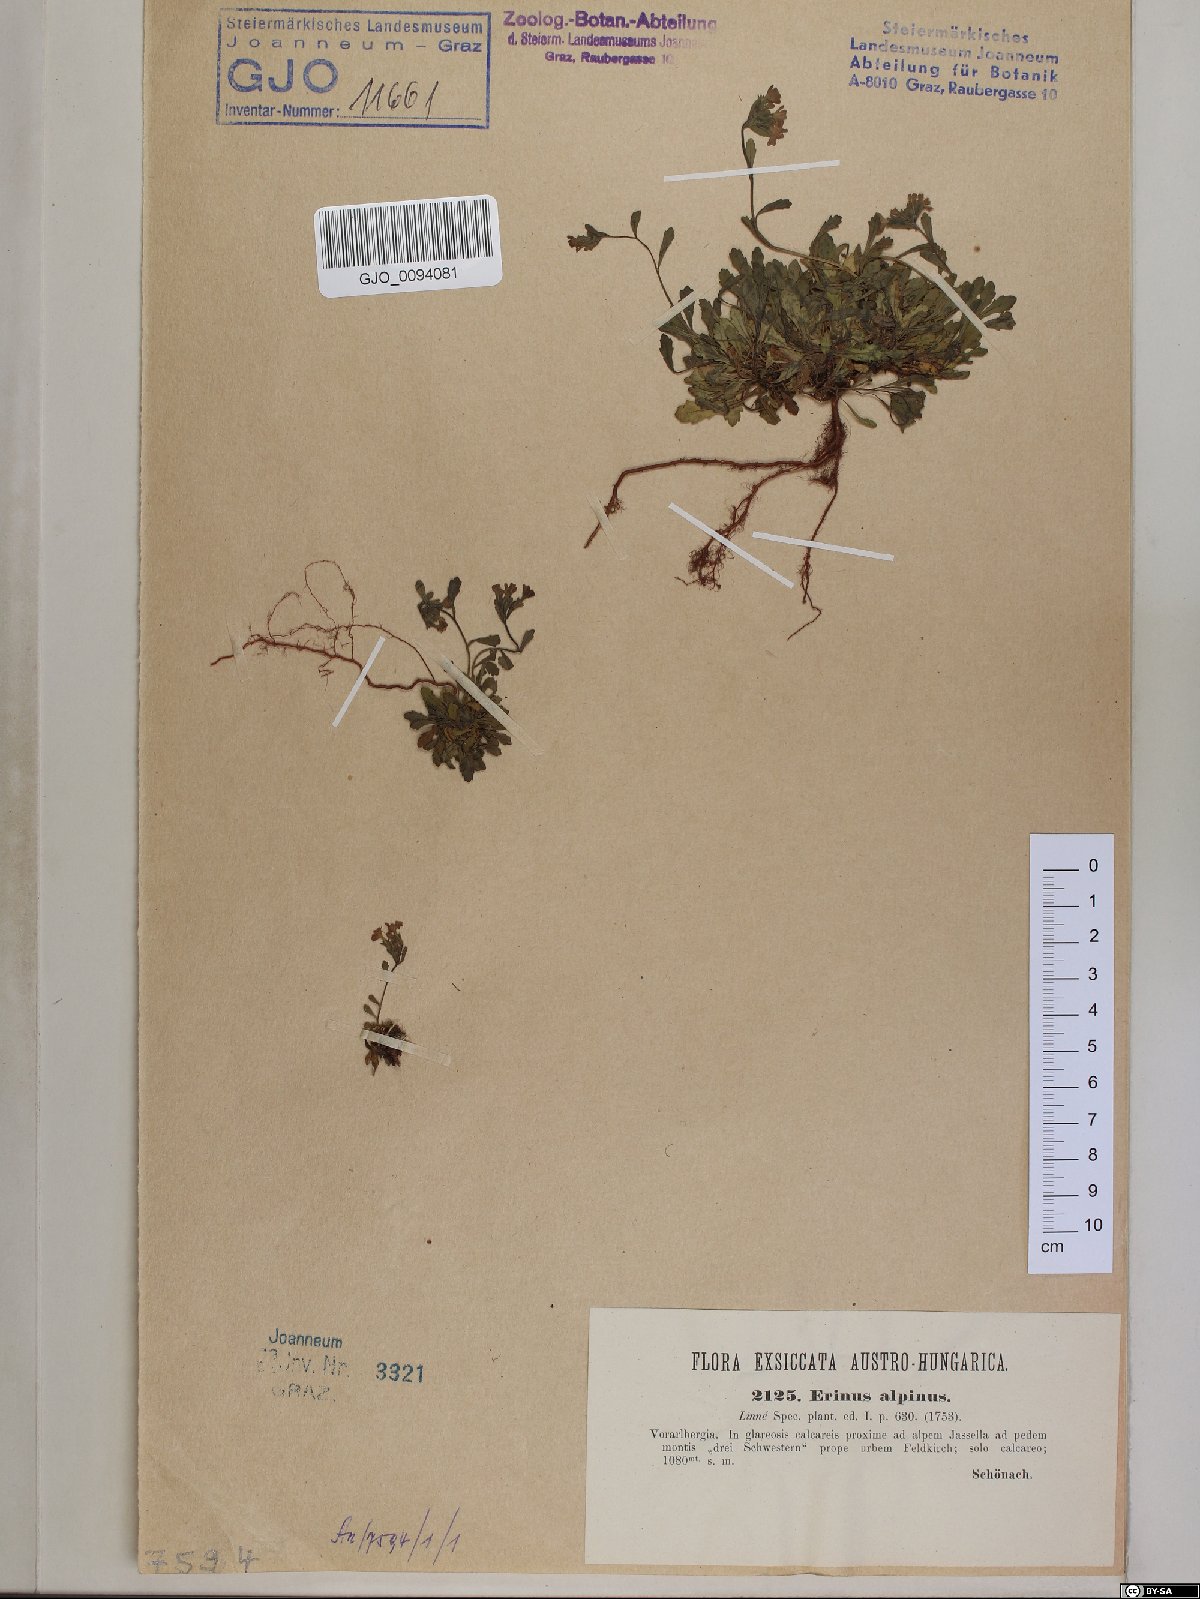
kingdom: Plantae
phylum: Tracheophyta
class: Magnoliopsida
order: Lamiales
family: Plantaginaceae
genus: Erinus
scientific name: Erinus alpinus
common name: Fairy foxglove
